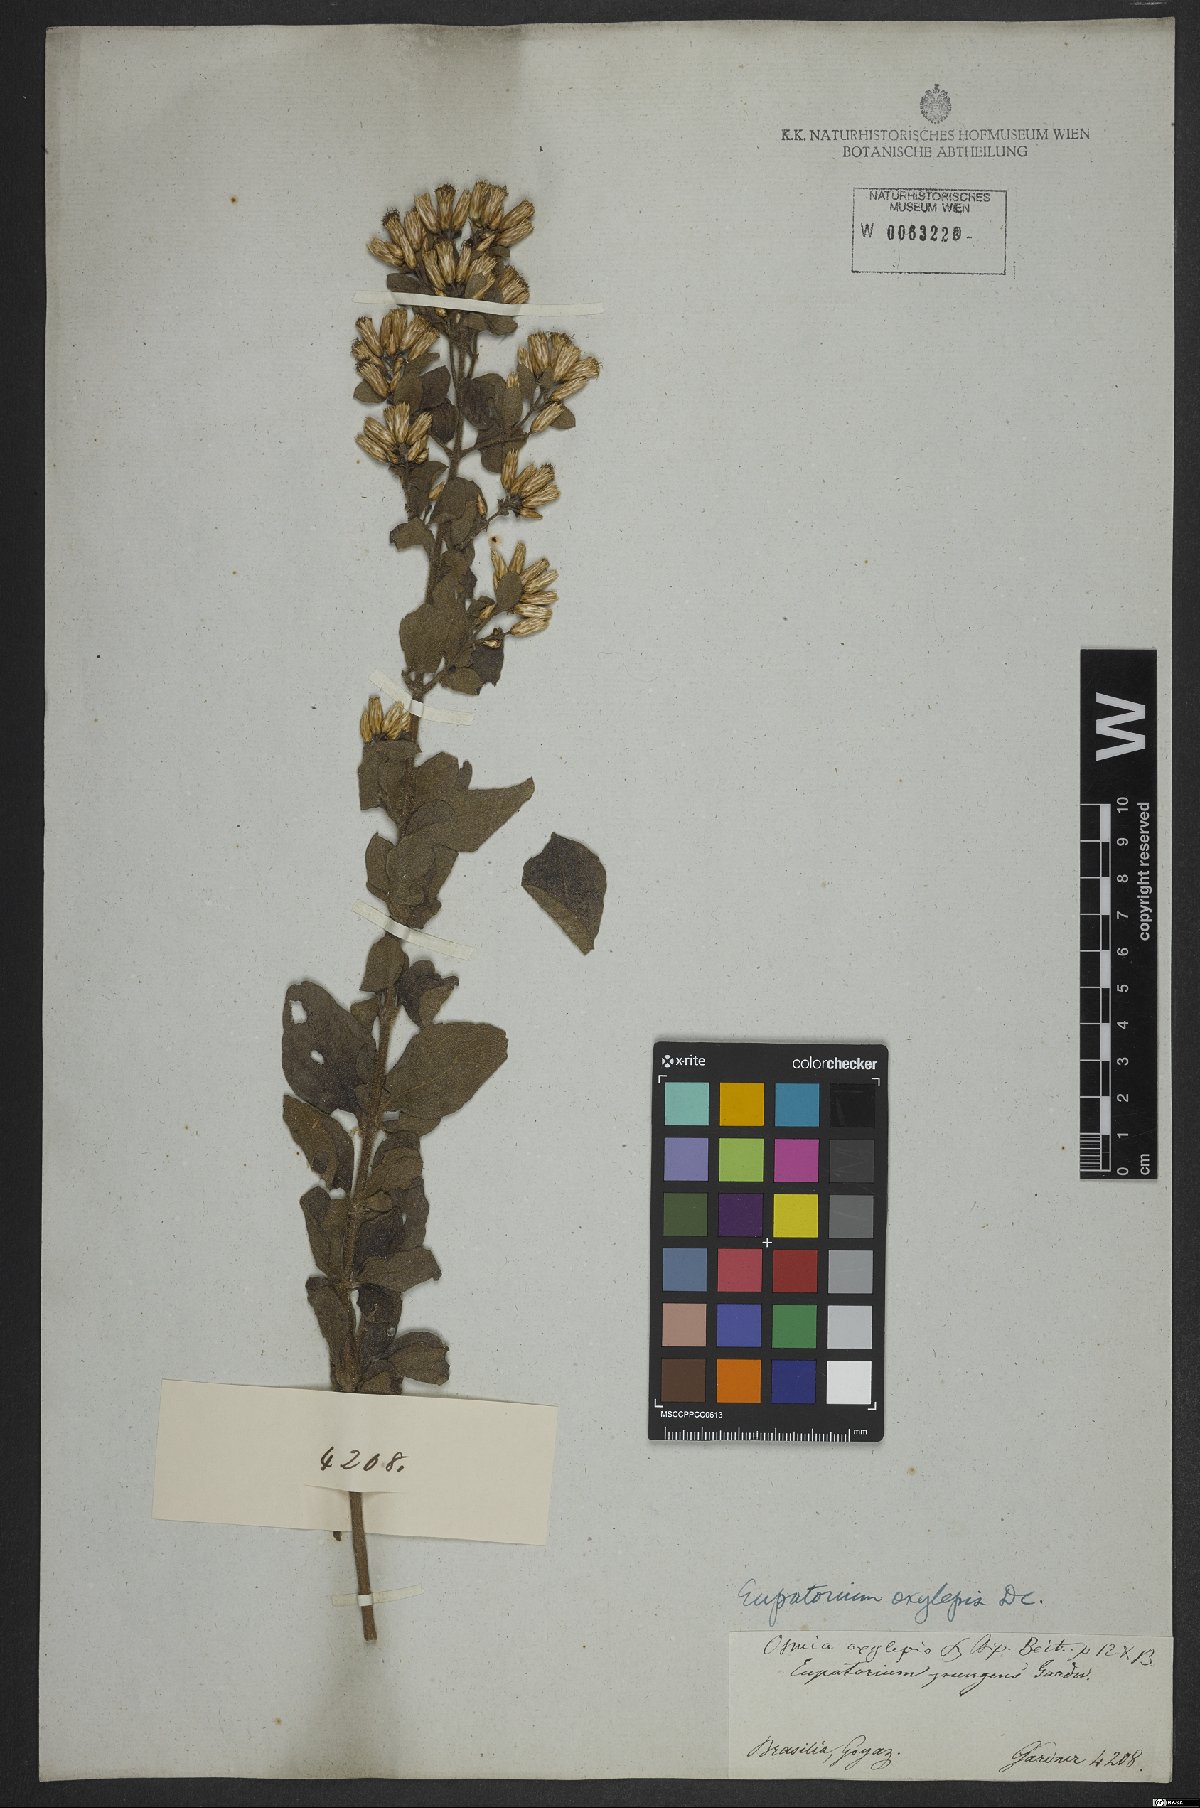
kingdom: Plantae
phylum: Tracheophyta
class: Magnoliopsida
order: Asterales
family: Asteraceae
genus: Chromolaena
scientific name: Chromolaena oxylepis
